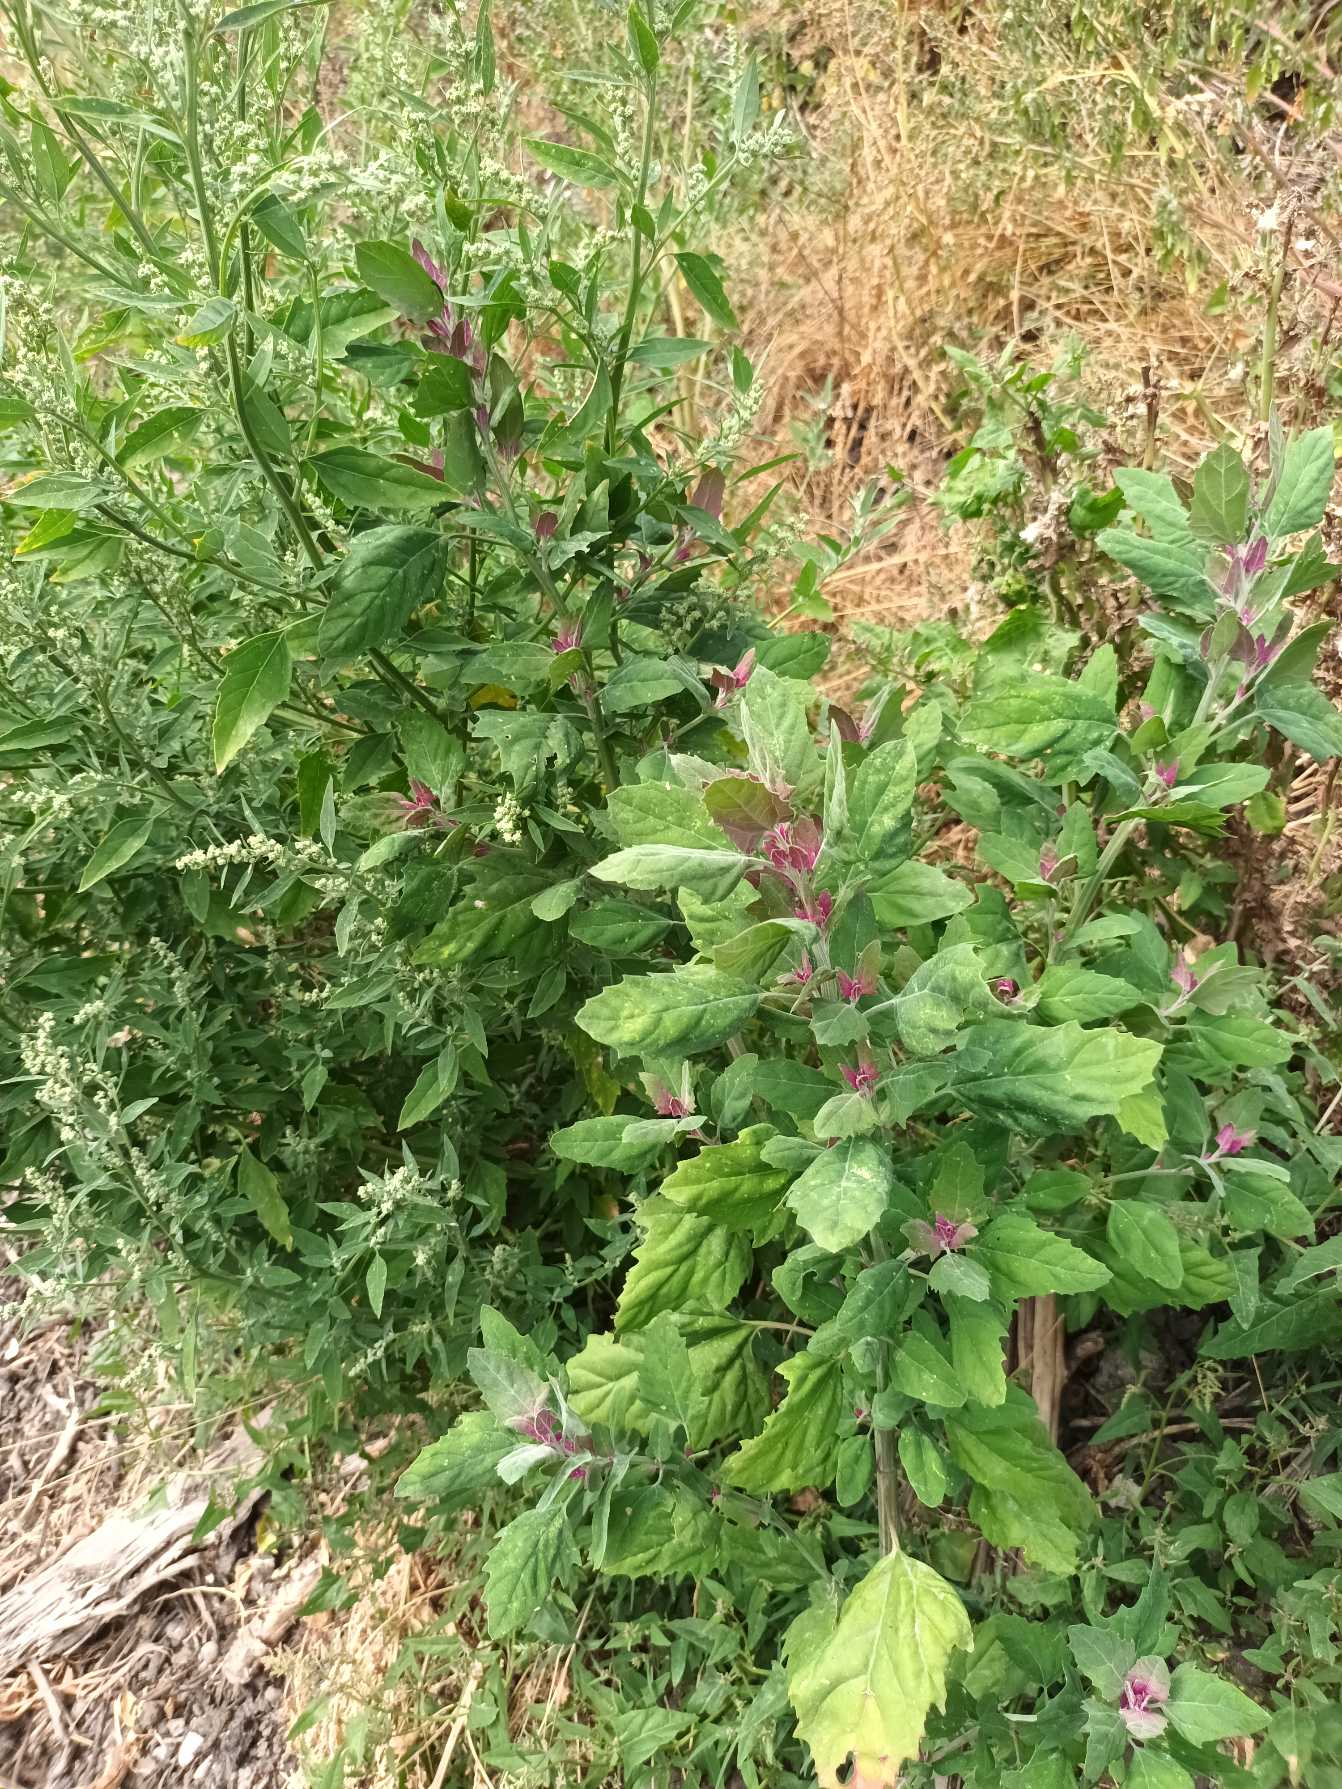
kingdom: Plantae
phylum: Tracheophyta
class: Magnoliopsida
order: Caryophyllales
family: Amaranthaceae
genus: Chenopodium
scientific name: Chenopodium giganteum
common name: Kæmpe-gåsefod
